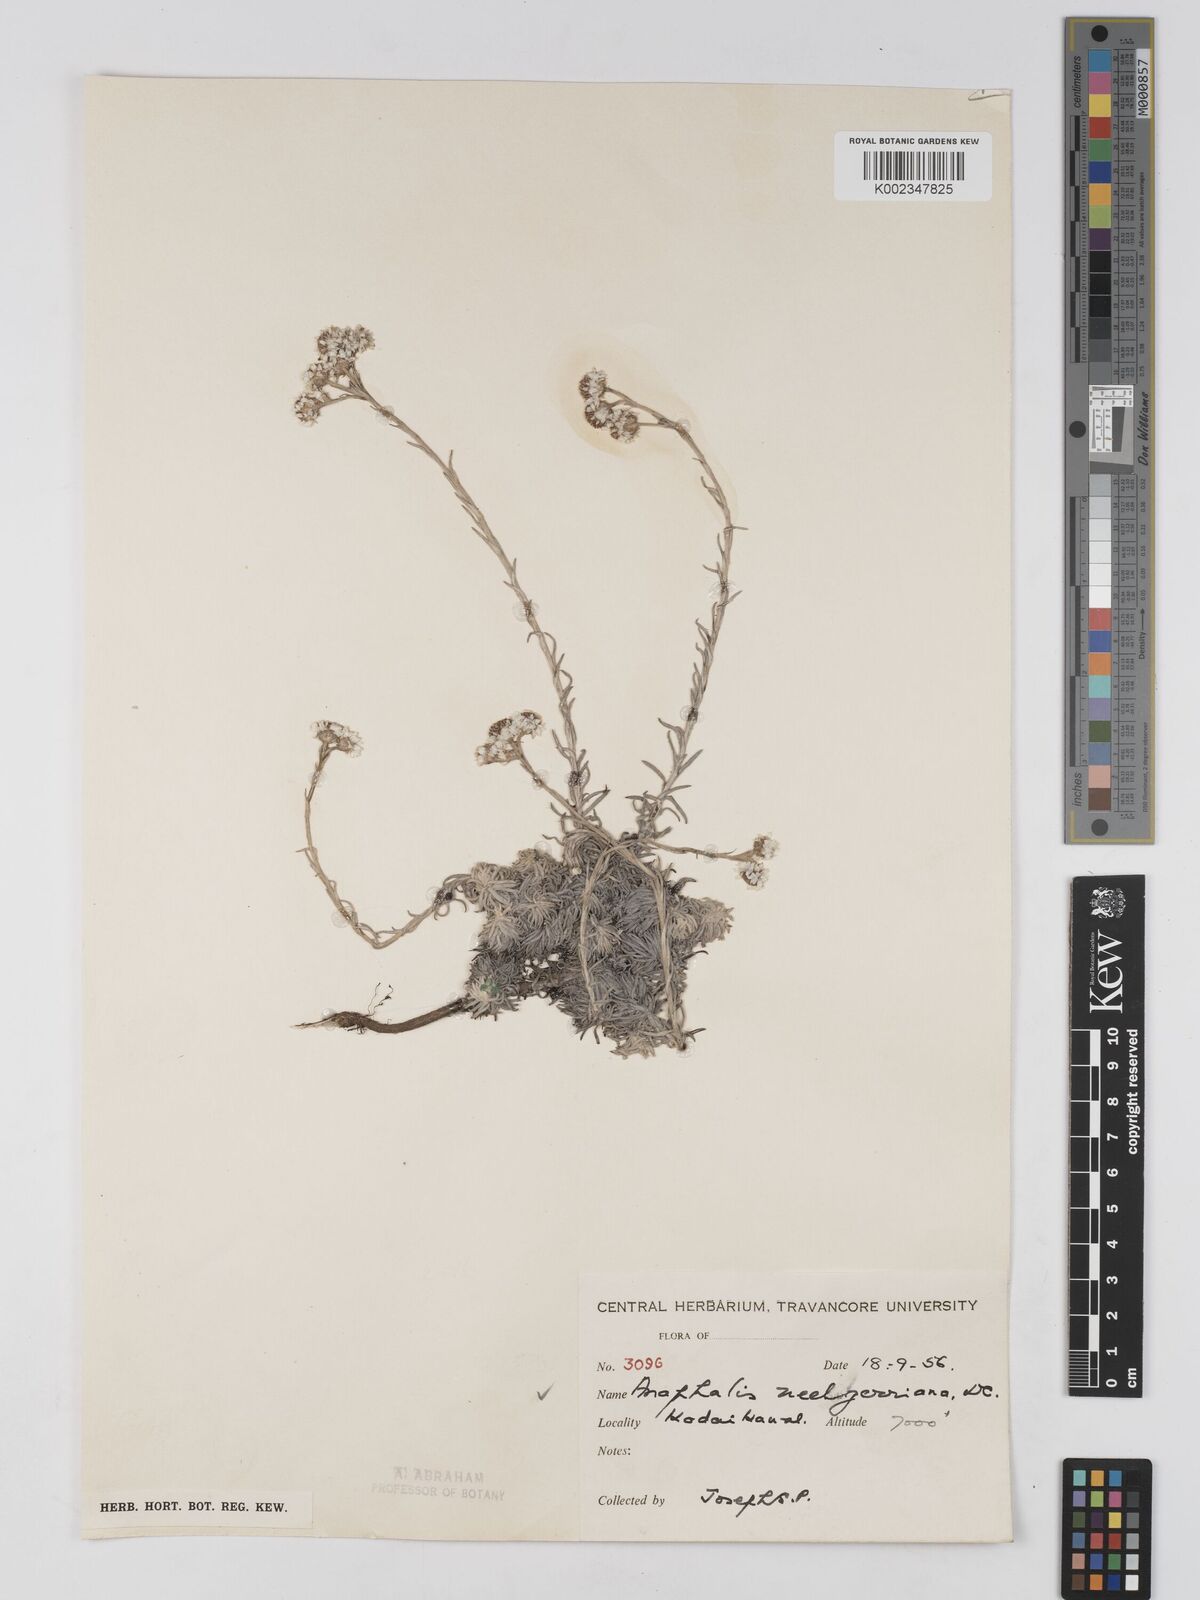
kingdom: Plantae
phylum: Tracheophyta
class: Magnoliopsida
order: Asterales
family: Asteraceae
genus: Anaphalis
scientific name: Anaphalis neelgerryana
